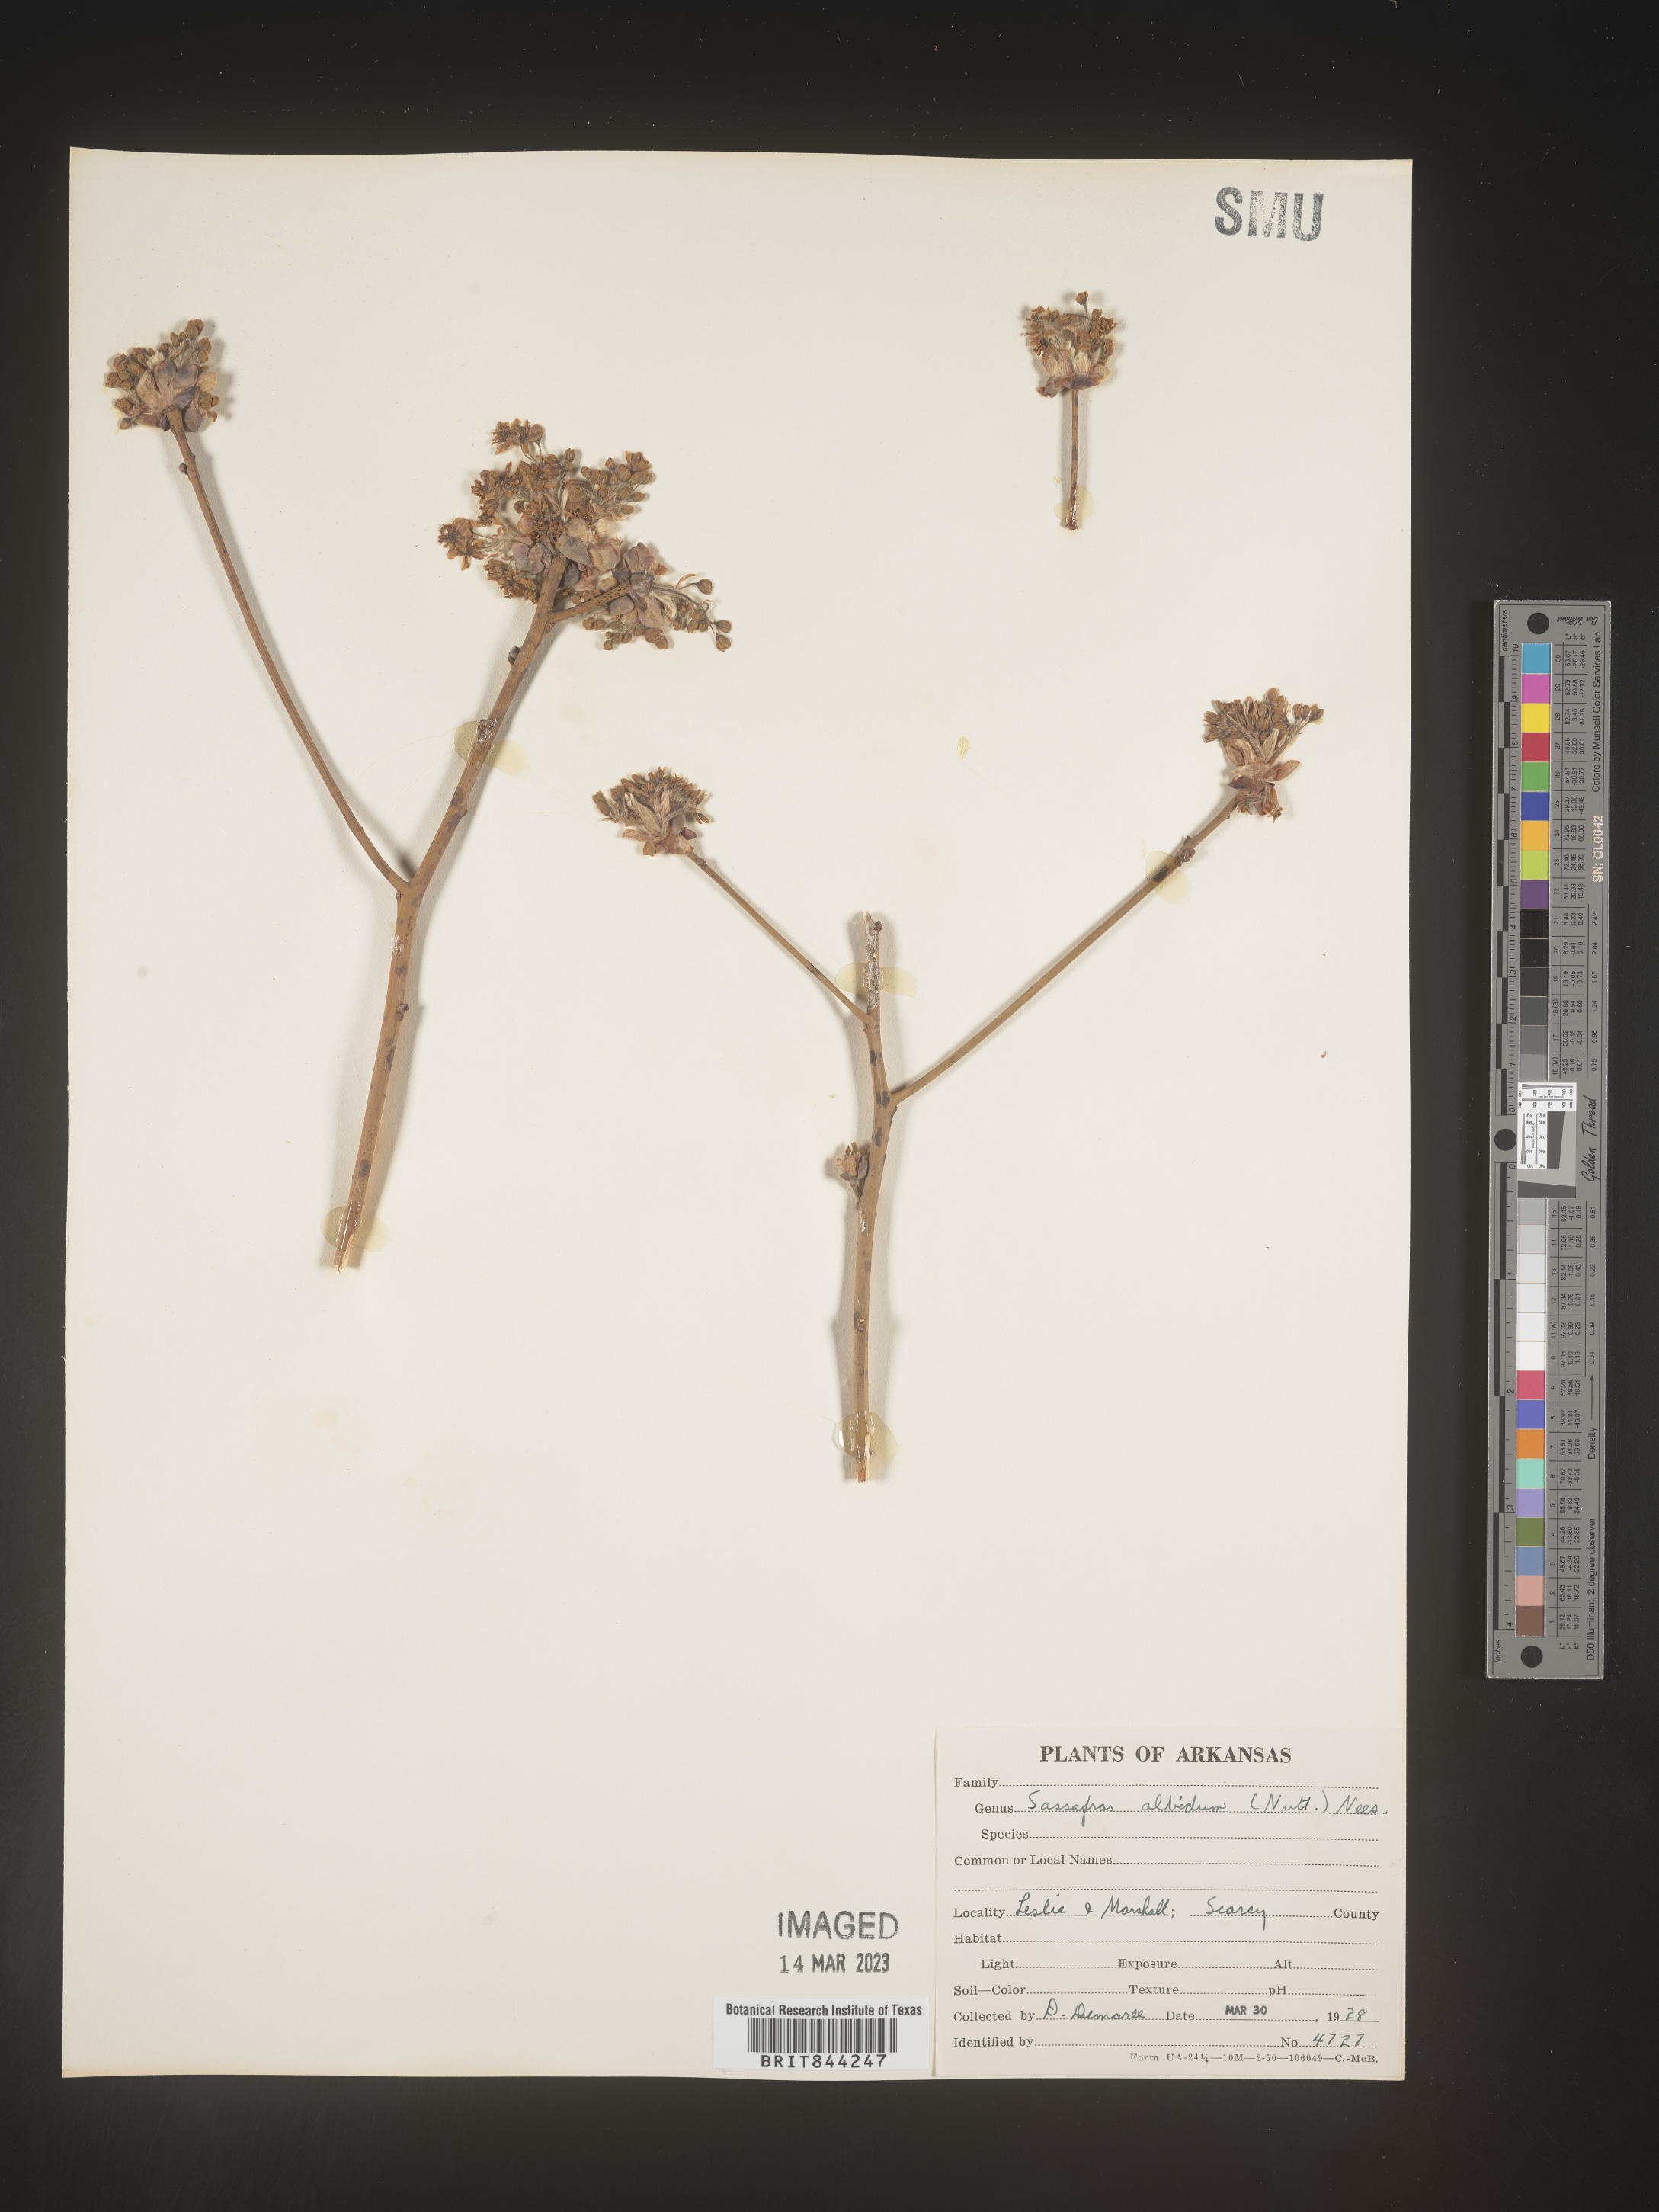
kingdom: Plantae
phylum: Tracheophyta
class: Magnoliopsida
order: Laurales
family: Lauraceae
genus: Sassafras
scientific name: Sassafras albidum
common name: Sassafras
